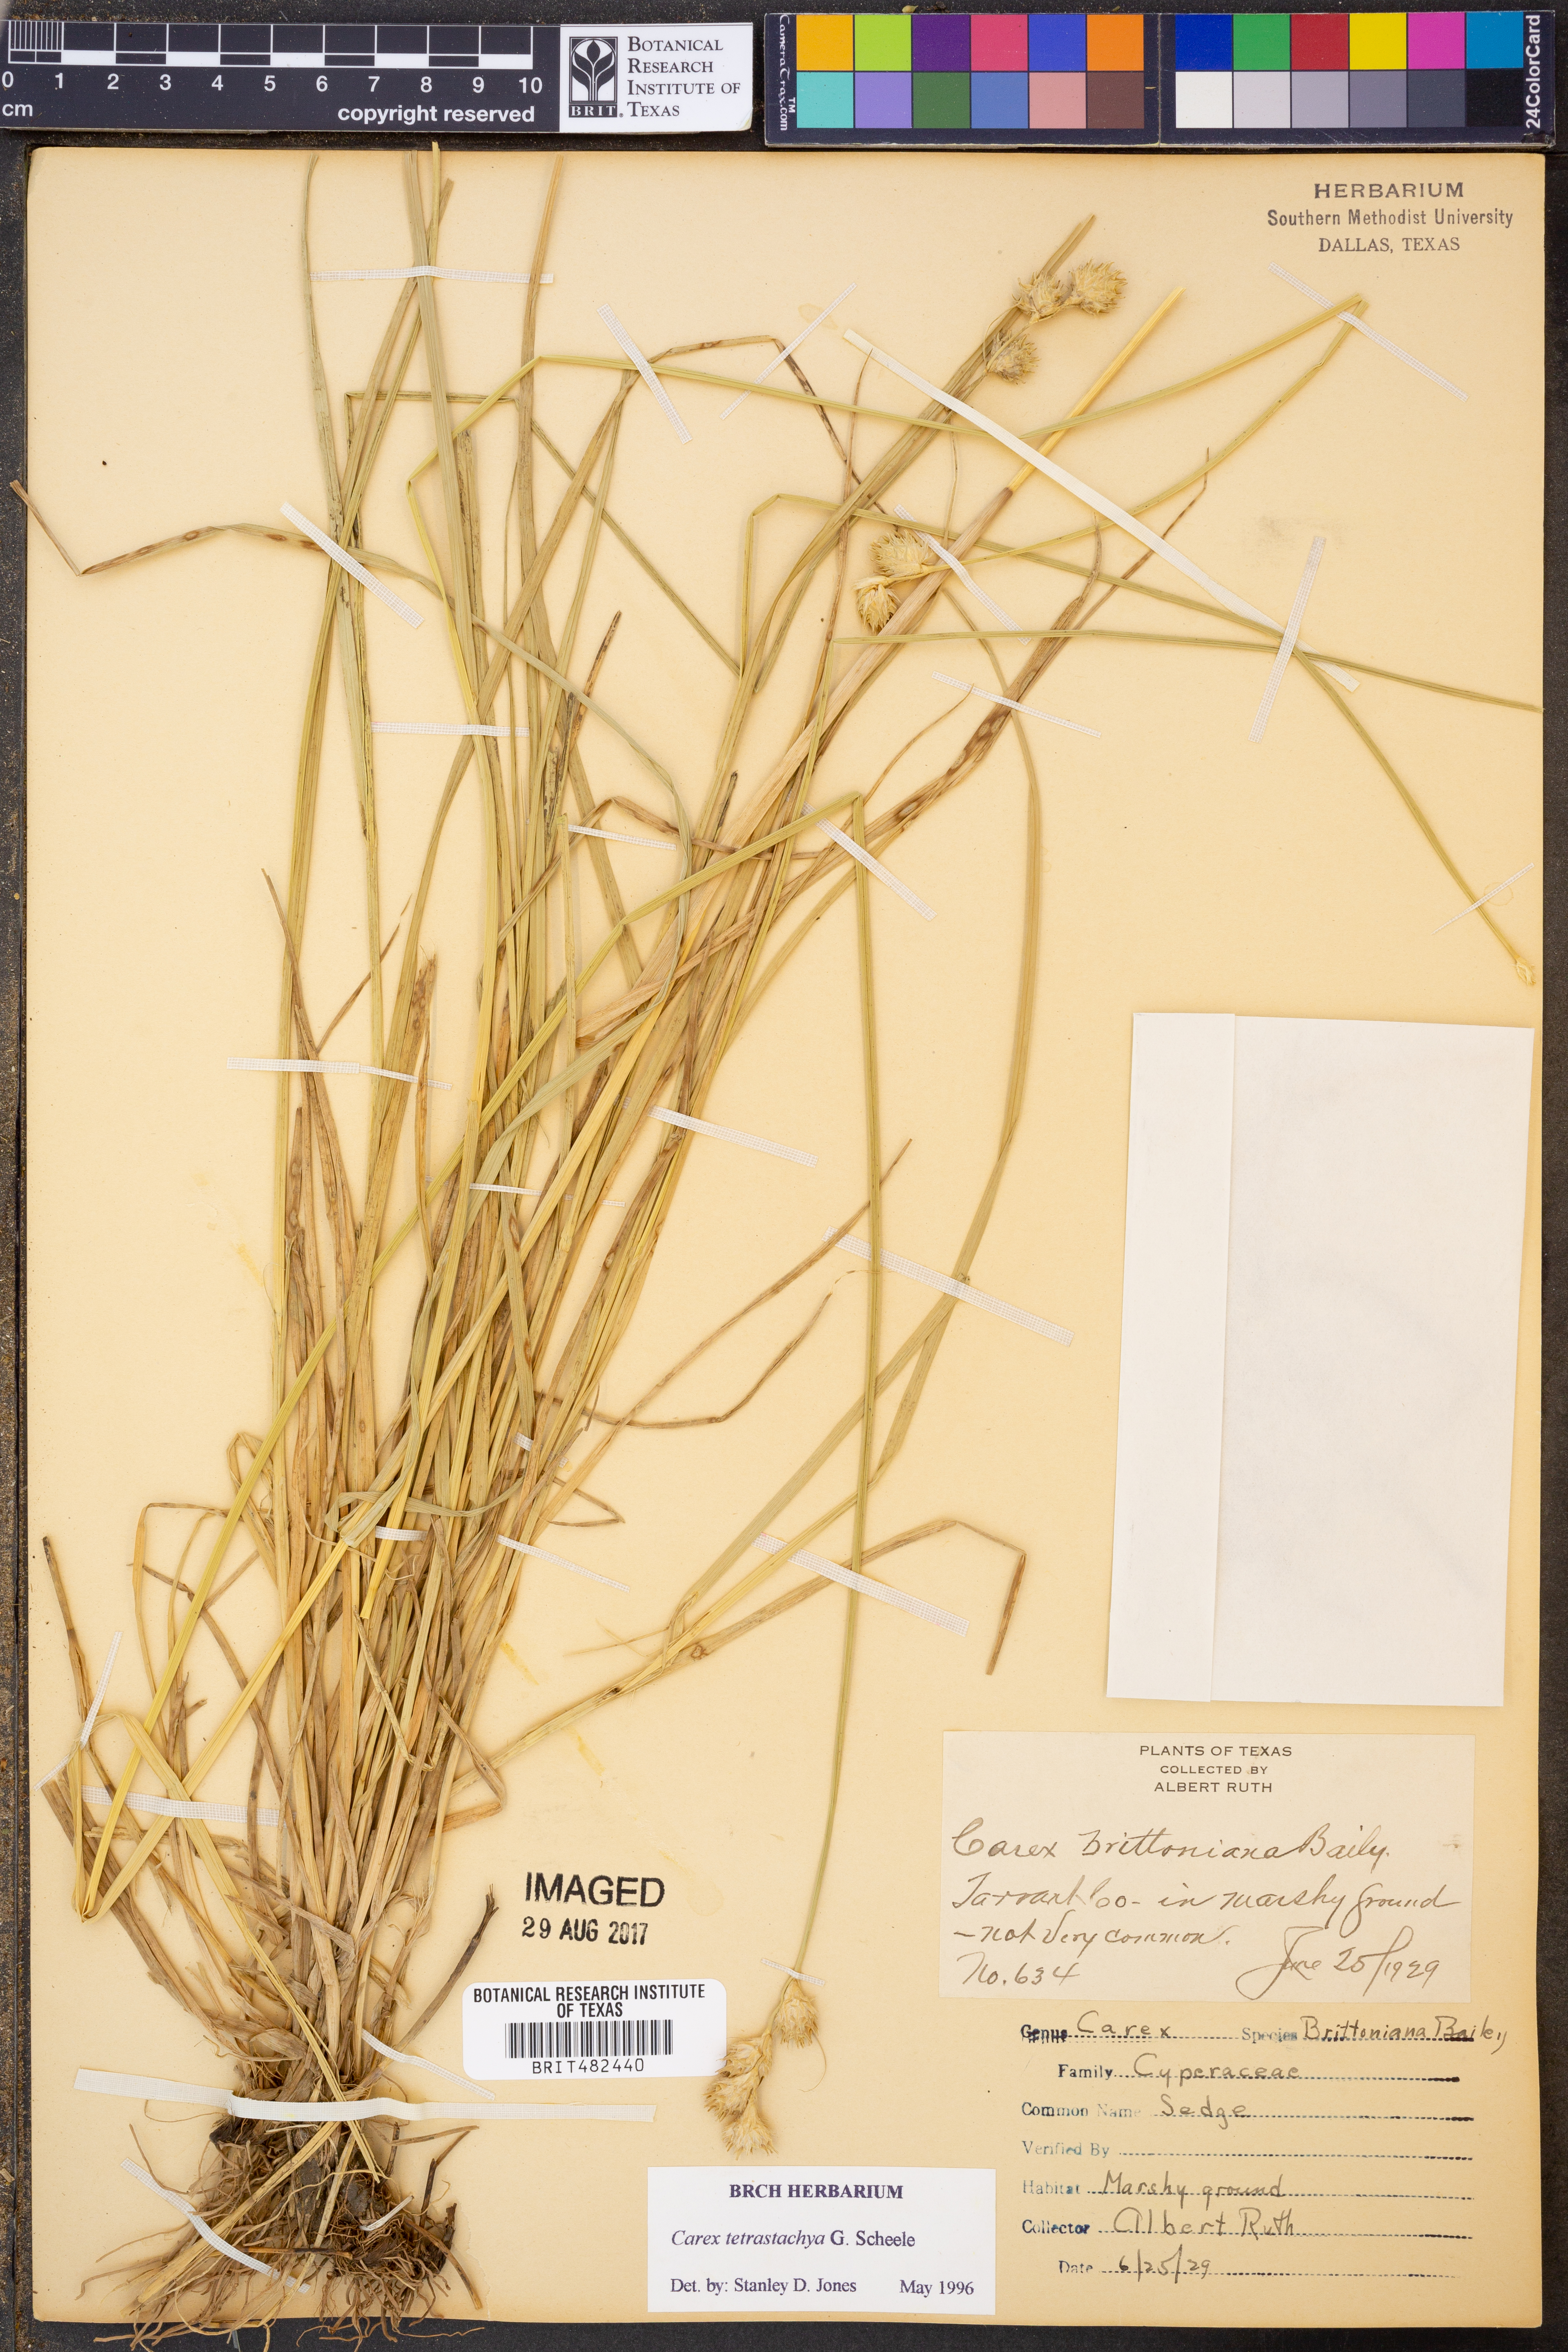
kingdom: Plantae
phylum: Tracheophyta
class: Liliopsida
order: Poales
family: Cyperaceae
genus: Carex
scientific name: Carex tetrastachya
